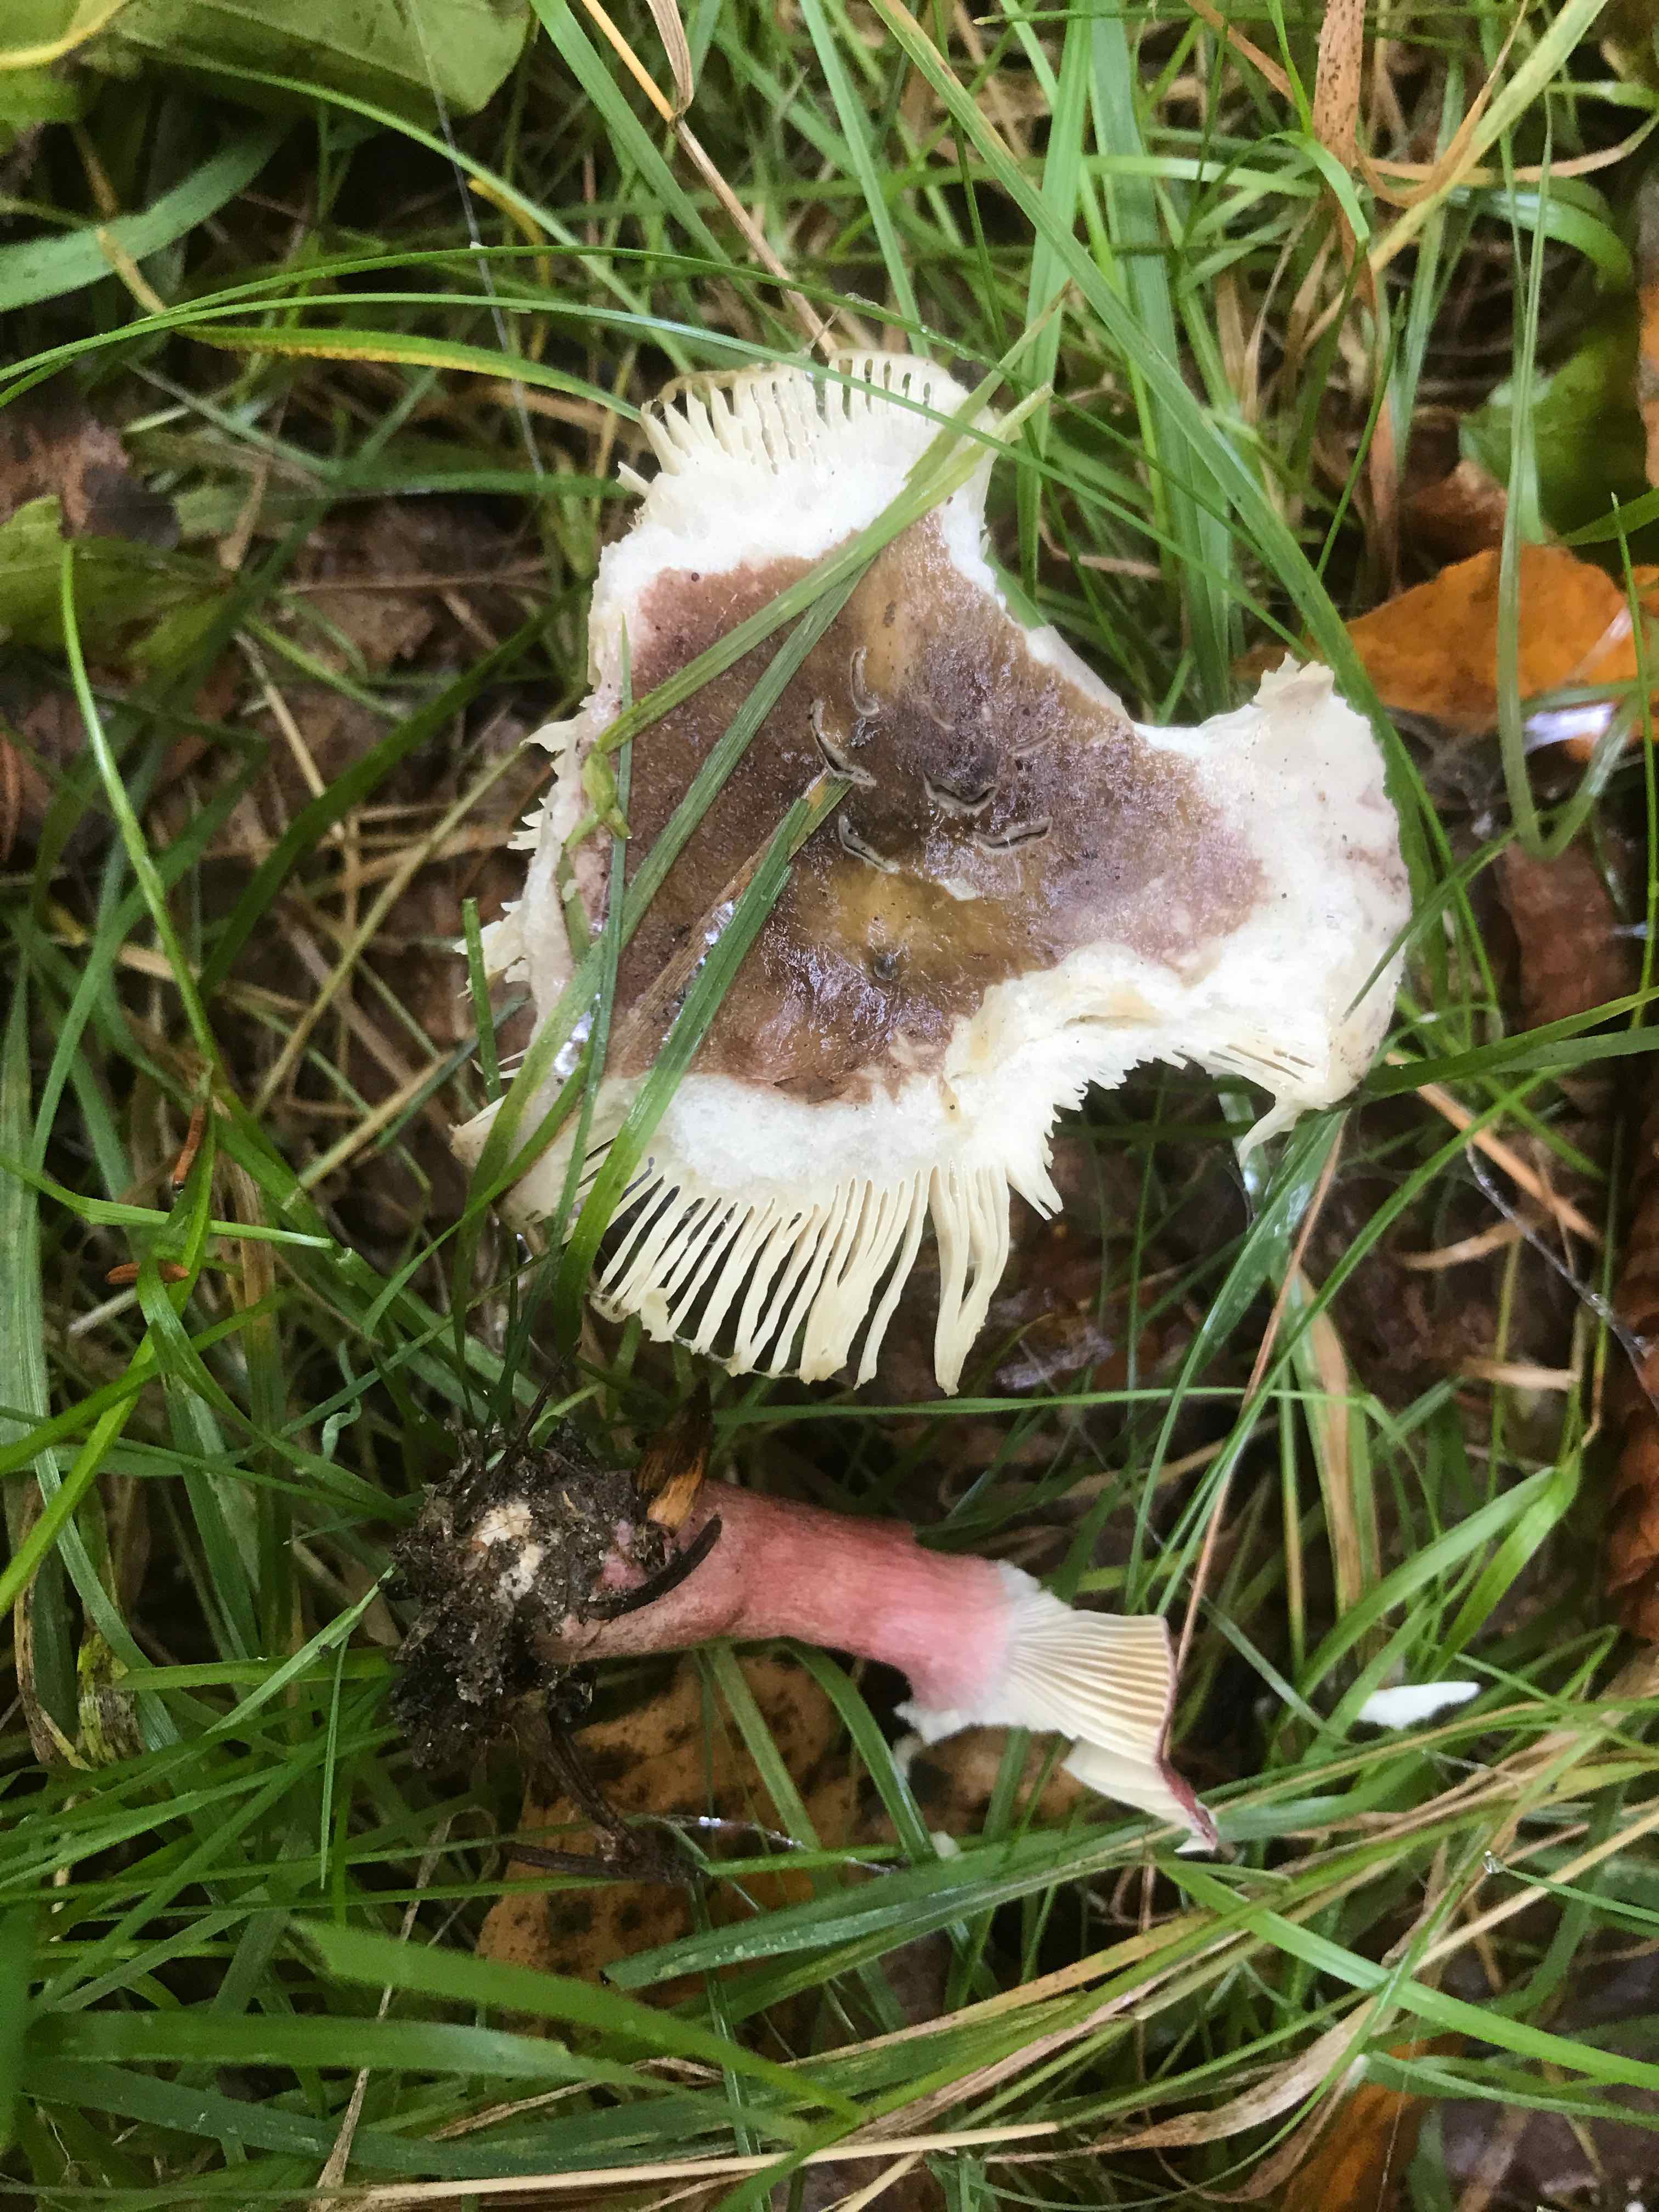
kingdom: Fungi
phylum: Basidiomycota
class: Agaricomycetes
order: Russulales
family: Russulaceae
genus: Russula
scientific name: Russula queletii
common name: Quélets skørhat
